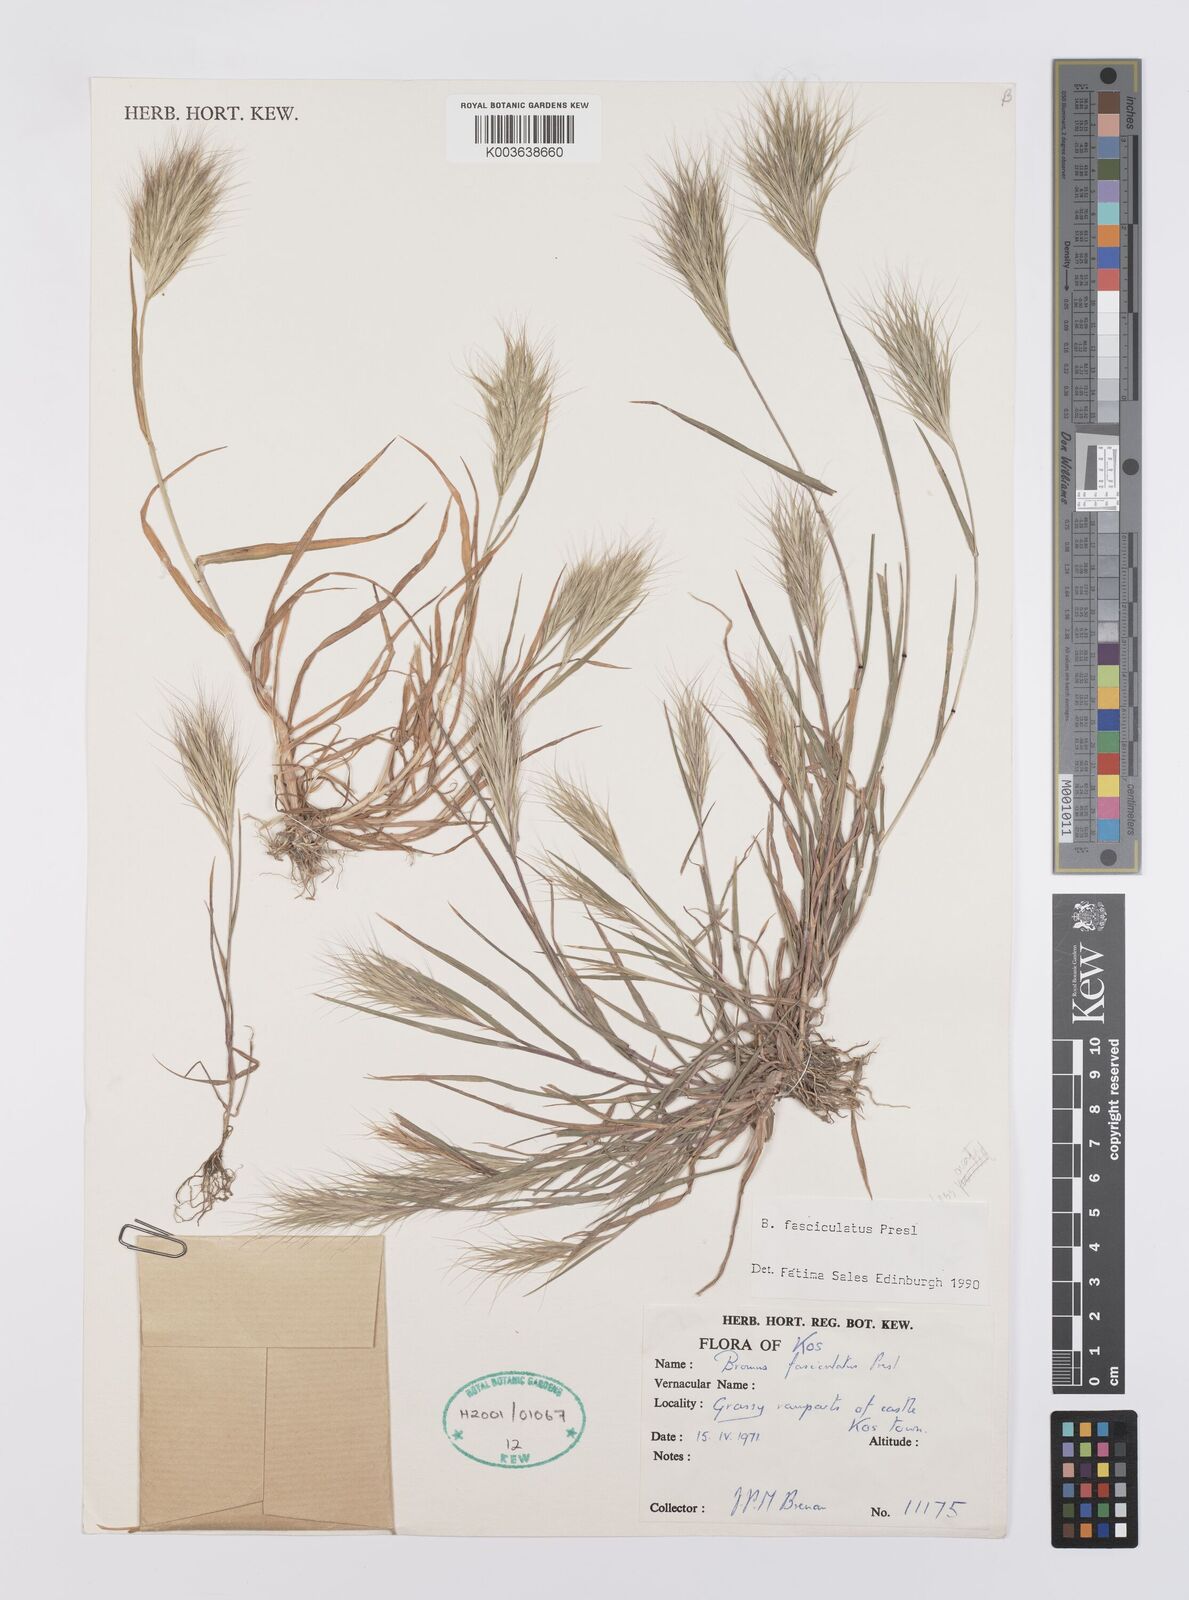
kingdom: Plantae
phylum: Tracheophyta
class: Liliopsida
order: Poales
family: Poaceae
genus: Bromus
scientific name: Bromus fasciculatus
